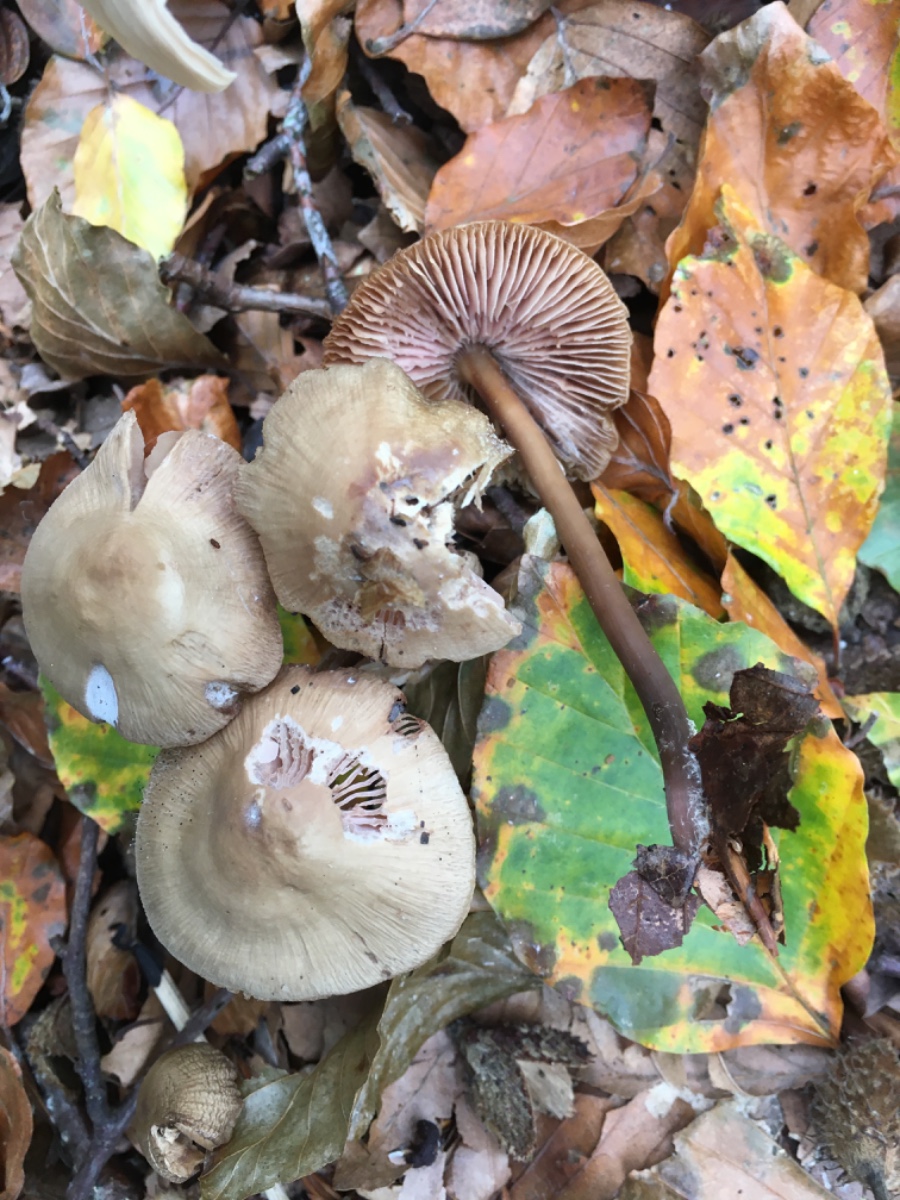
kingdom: Fungi
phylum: Basidiomycota
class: Agaricomycetes
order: Agaricales
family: Mycenaceae
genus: Mycena
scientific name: Mycena galericulata
